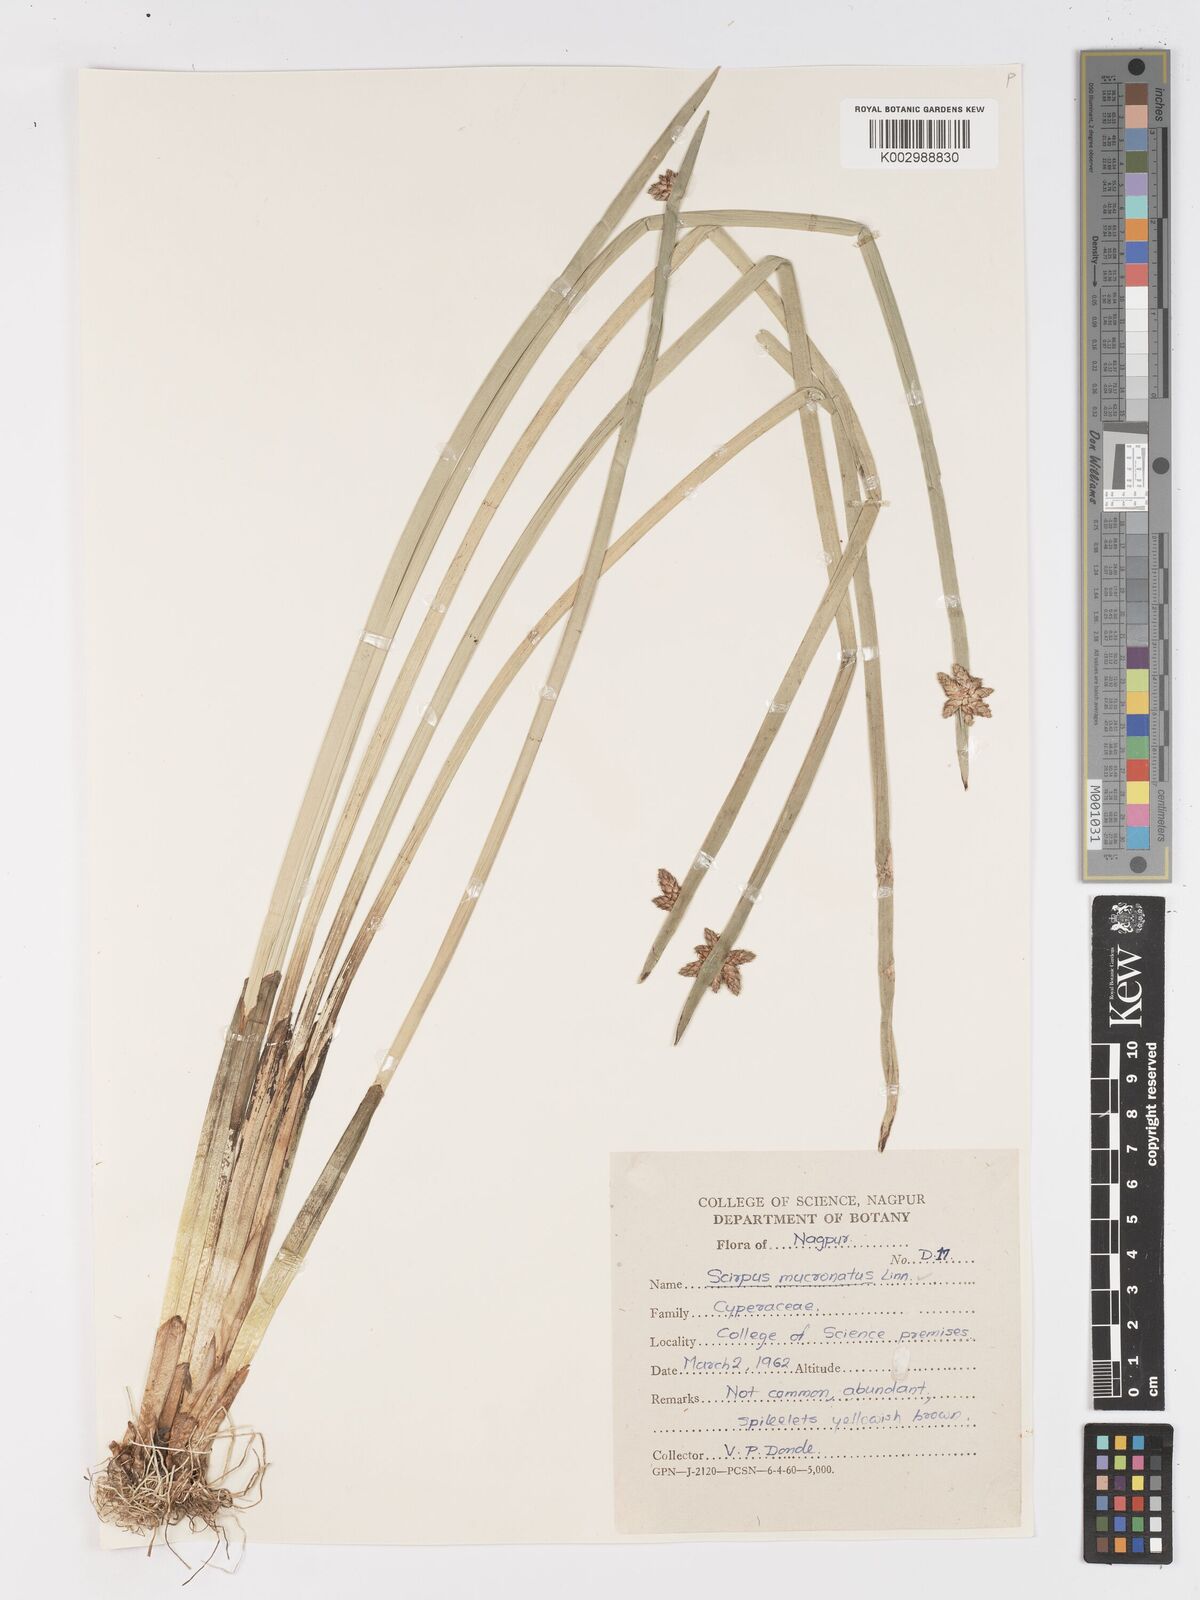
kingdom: Plantae
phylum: Tracheophyta
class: Liliopsida
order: Poales
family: Cyperaceae
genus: Schoenoplectiella
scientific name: Schoenoplectiella mucronata
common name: Bog bulrush
